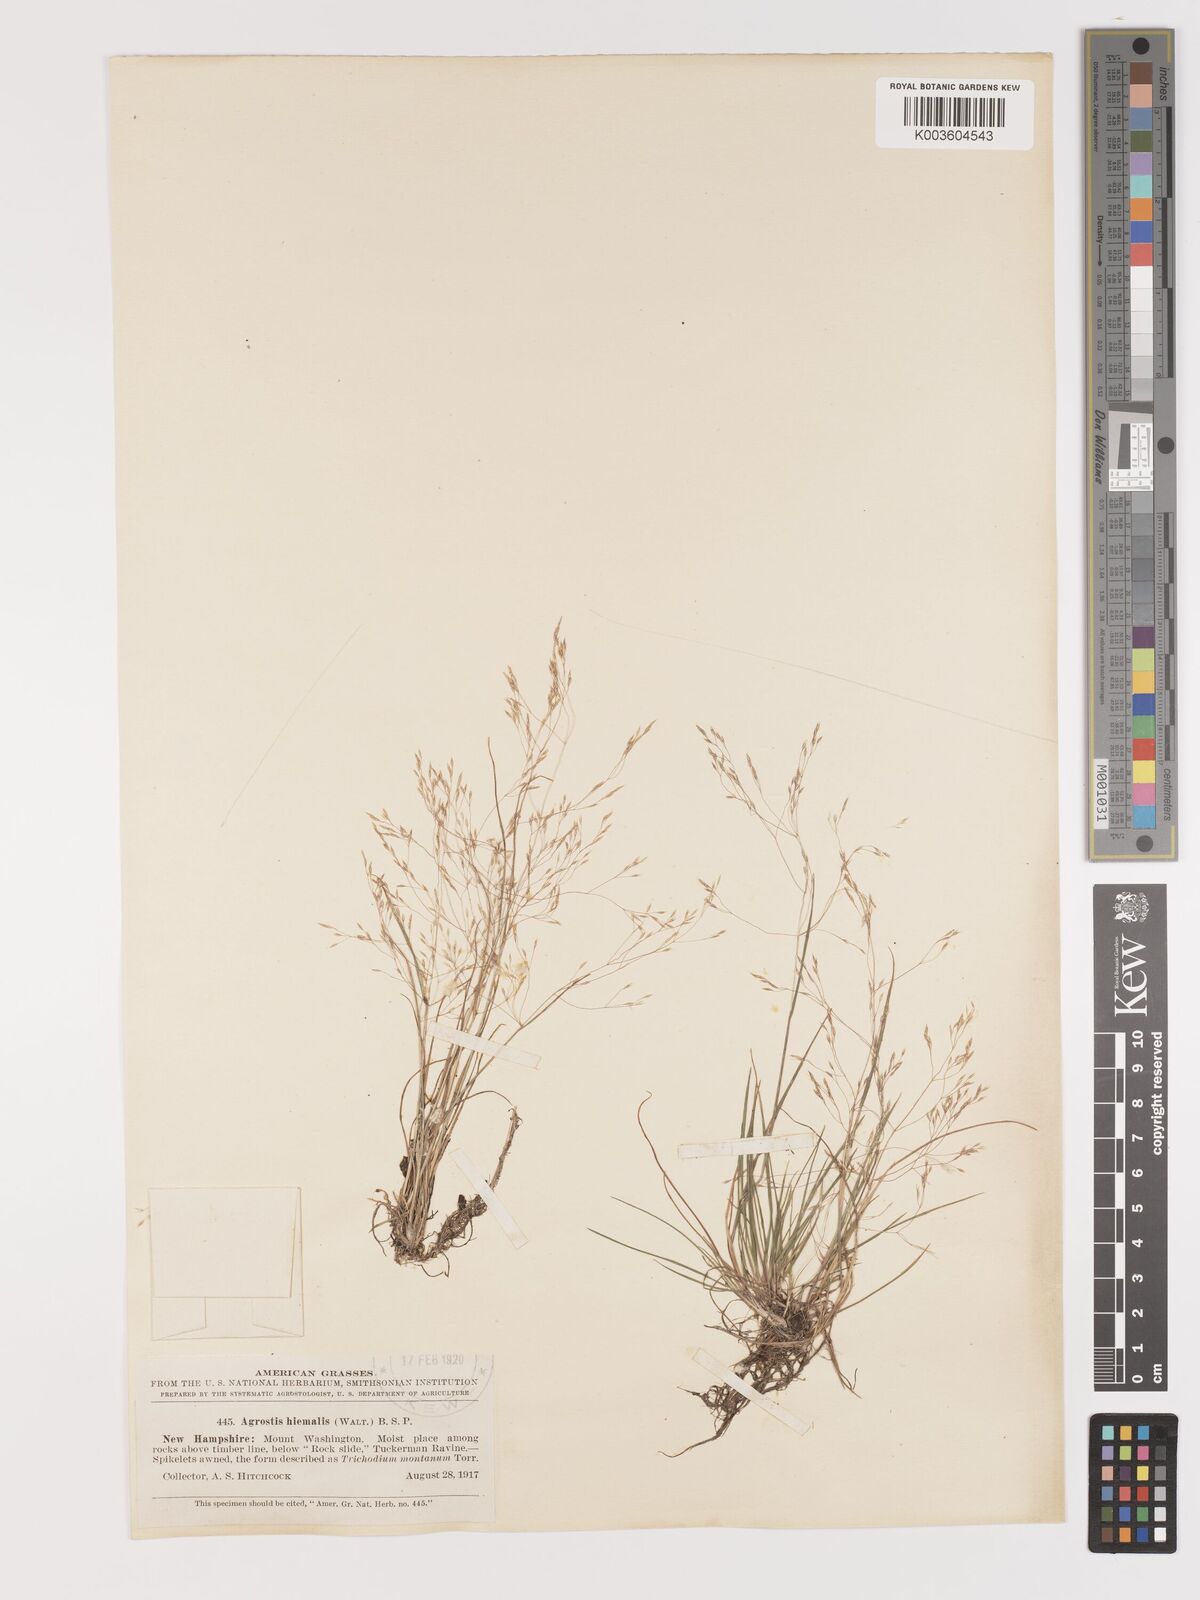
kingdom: Plantae
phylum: Tracheophyta
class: Liliopsida
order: Poales
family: Poaceae
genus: Agrostis
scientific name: Agrostis hyemalis
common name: Small bent
